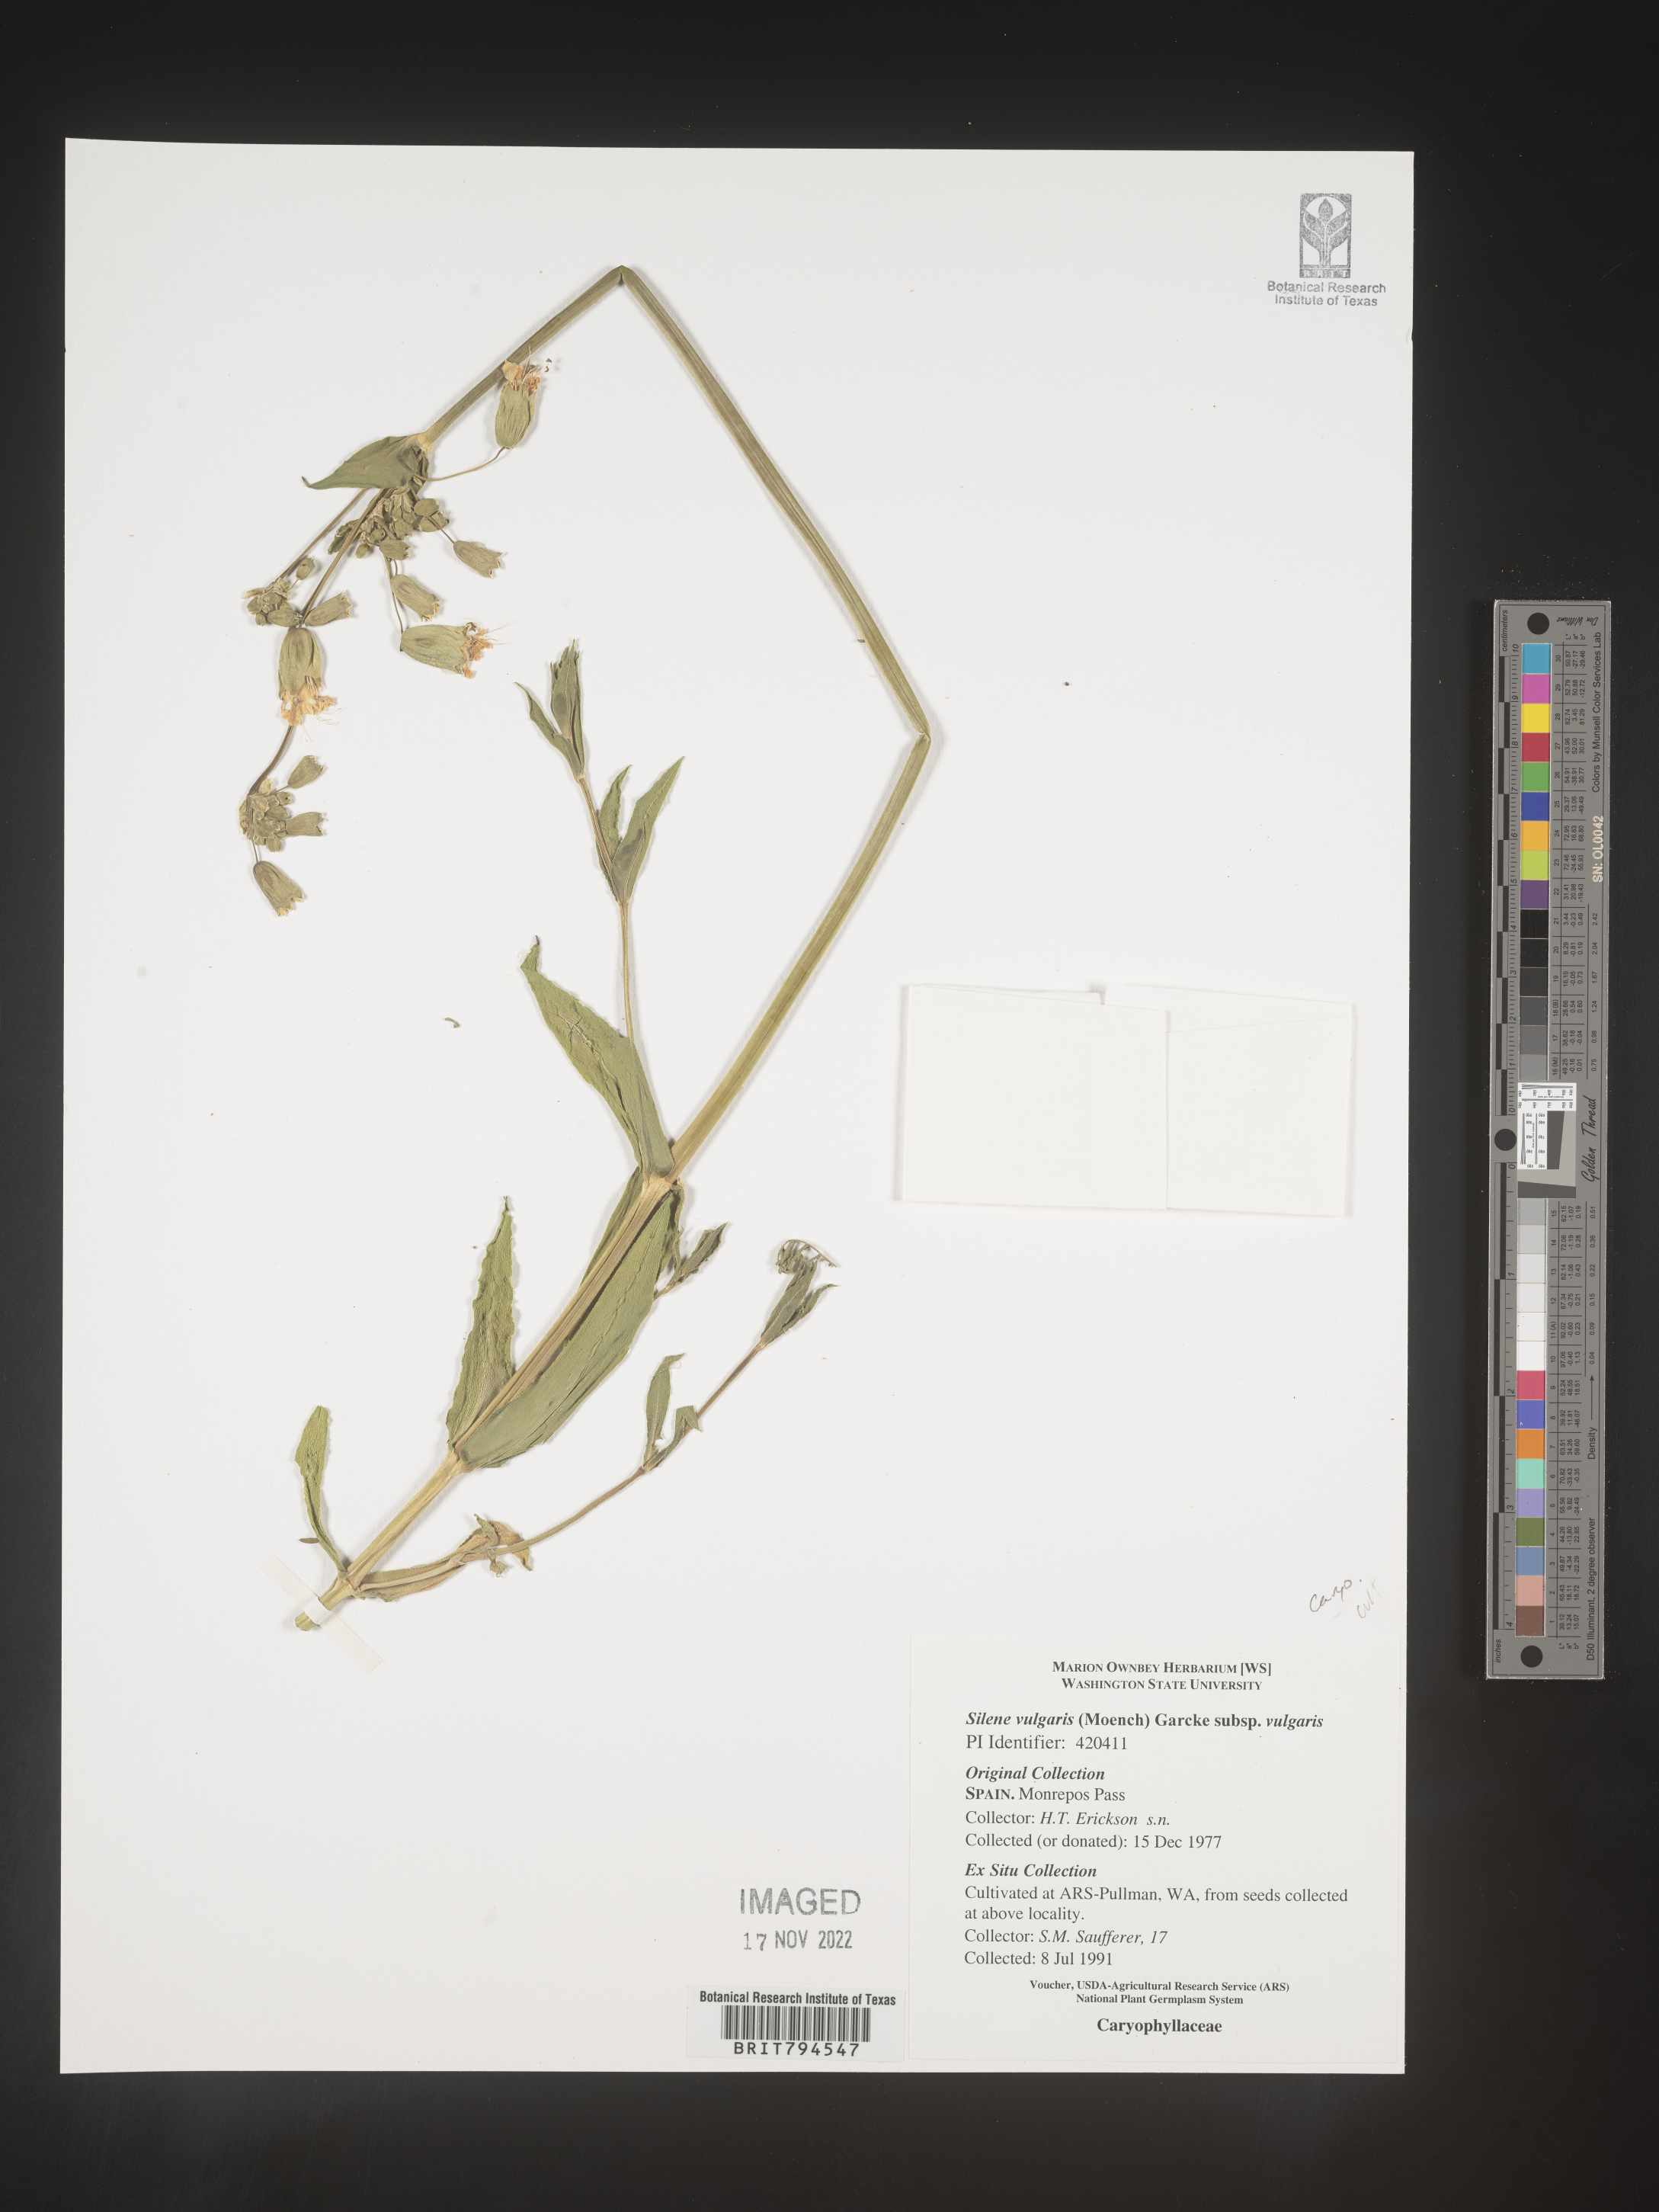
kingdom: Plantae
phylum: Tracheophyta
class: Magnoliopsida
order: Caryophyllales
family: Caryophyllaceae
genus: Silene
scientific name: Silene vulgaris
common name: Bladder campion
